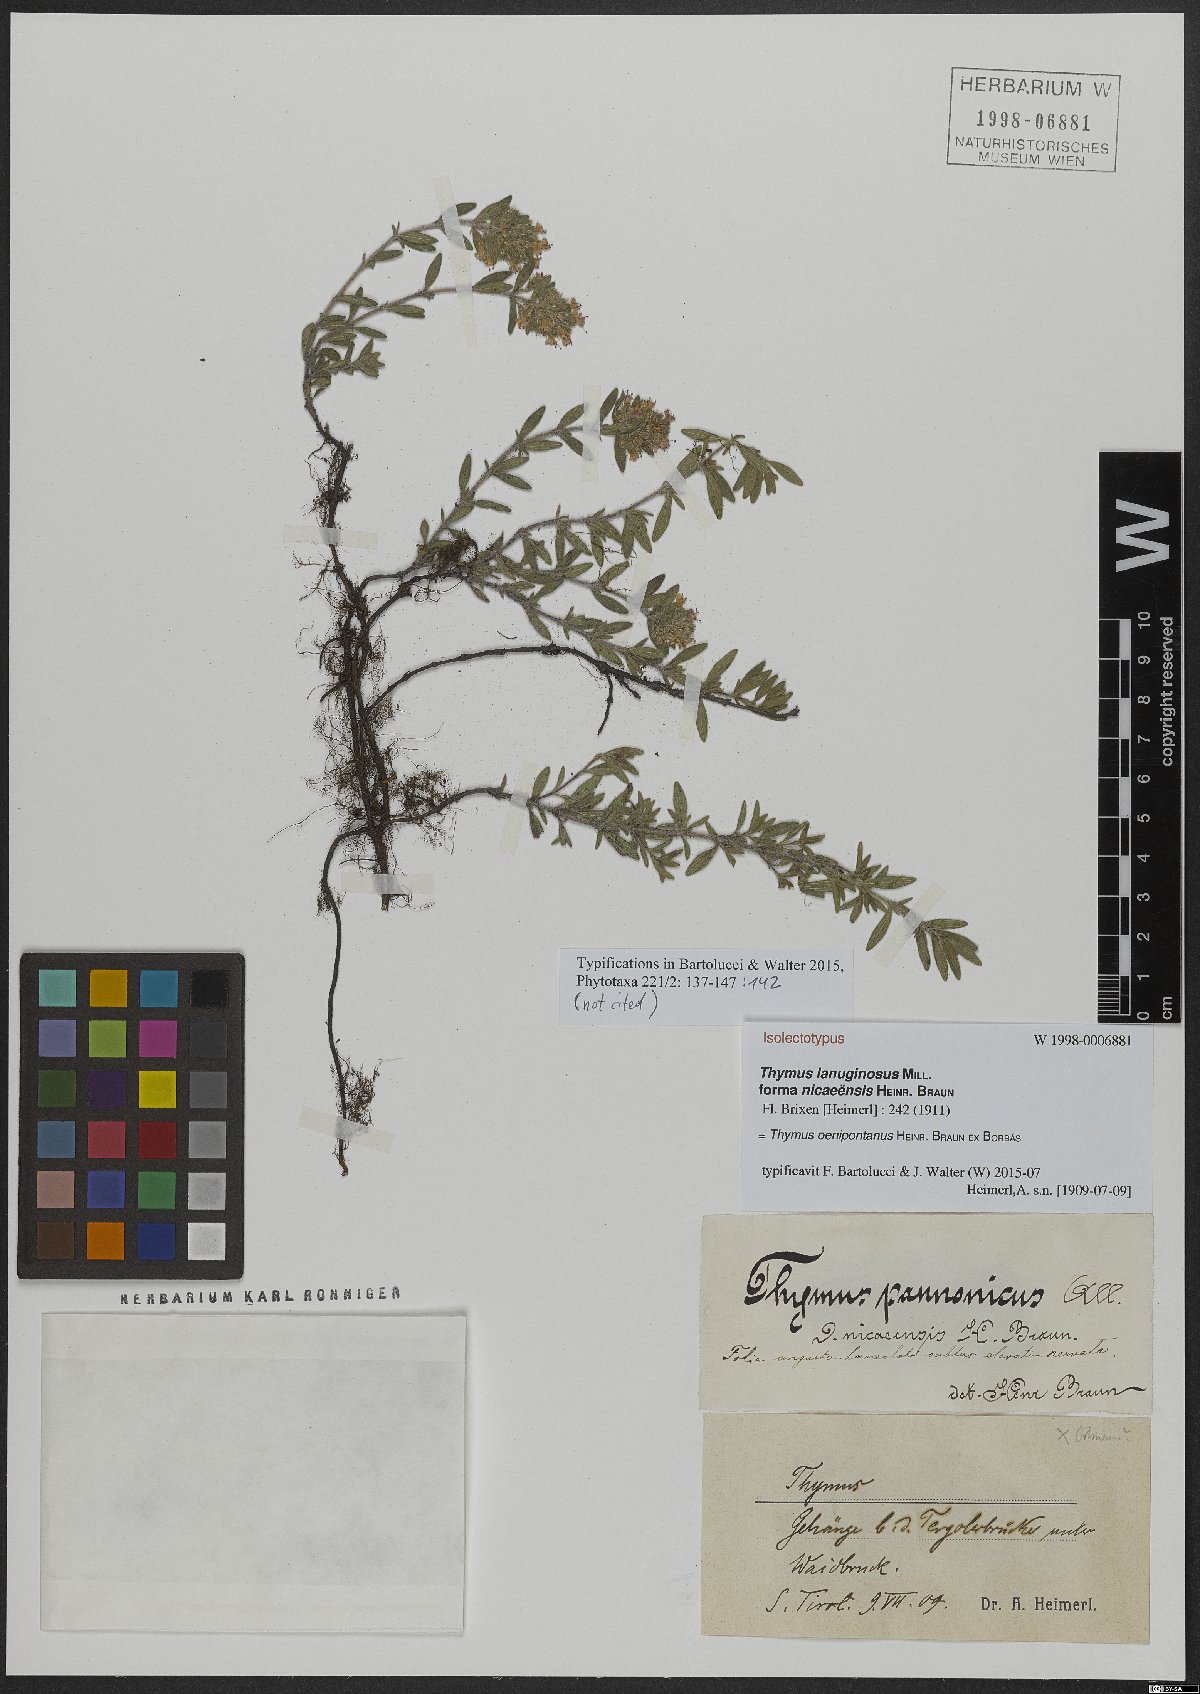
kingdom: Plantae
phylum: Tracheophyta
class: Magnoliopsida
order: Lamiales
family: Lamiaceae
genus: Thymus
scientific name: Thymus oenipontanus
